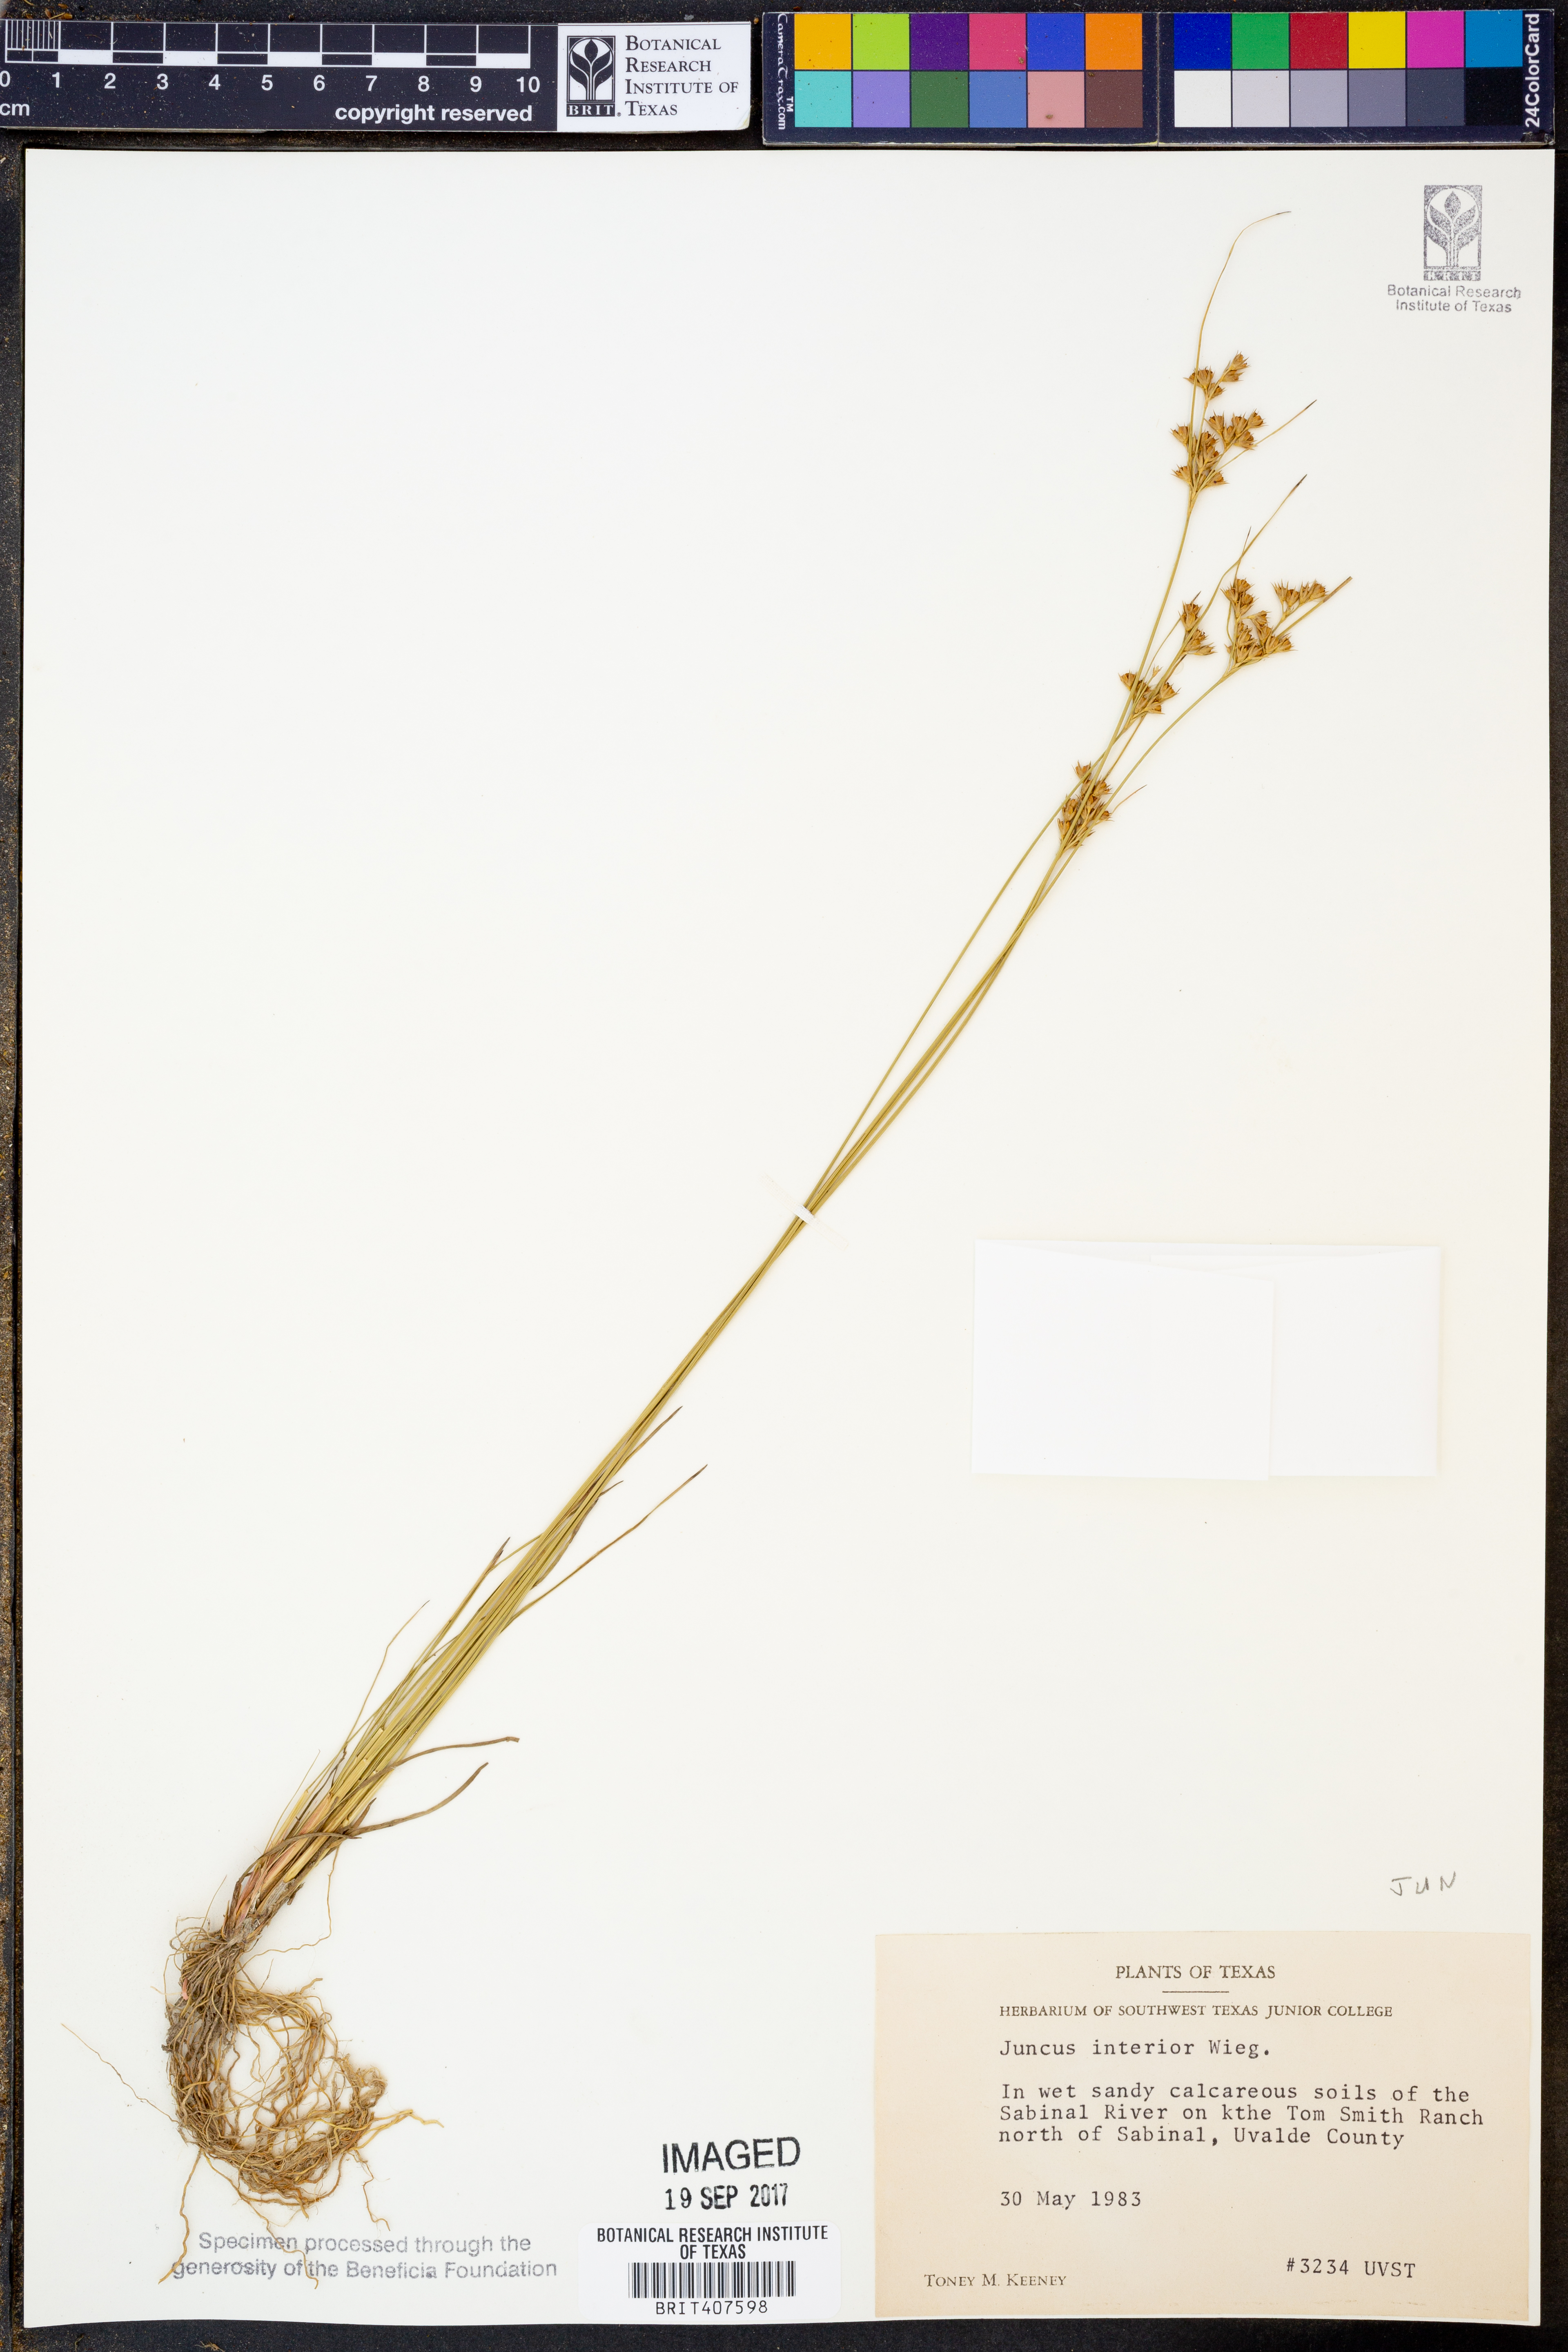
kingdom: Plantae
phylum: Tracheophyta
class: Liliopsida
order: Poales
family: Juncaceae
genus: Juncus
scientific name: Juncus interior
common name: Interior rush
